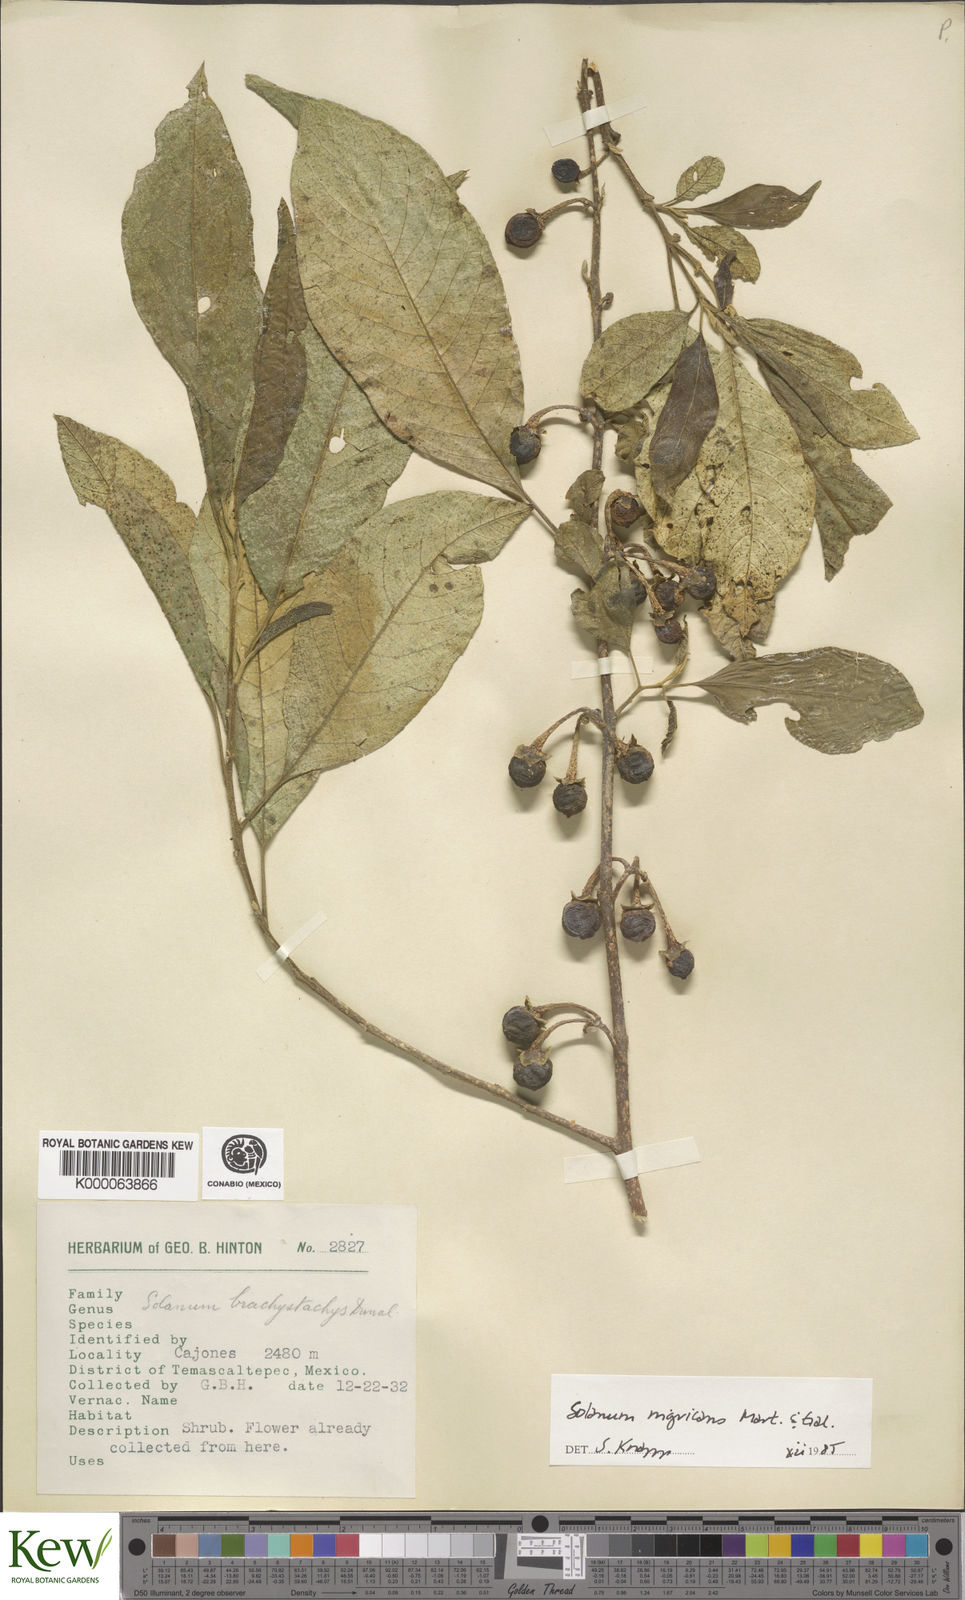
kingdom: Plantae
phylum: Tracheophyta
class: Magnoliopsida
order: Solanales
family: Solanaceae
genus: Solanum
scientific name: Solanum nigricans
